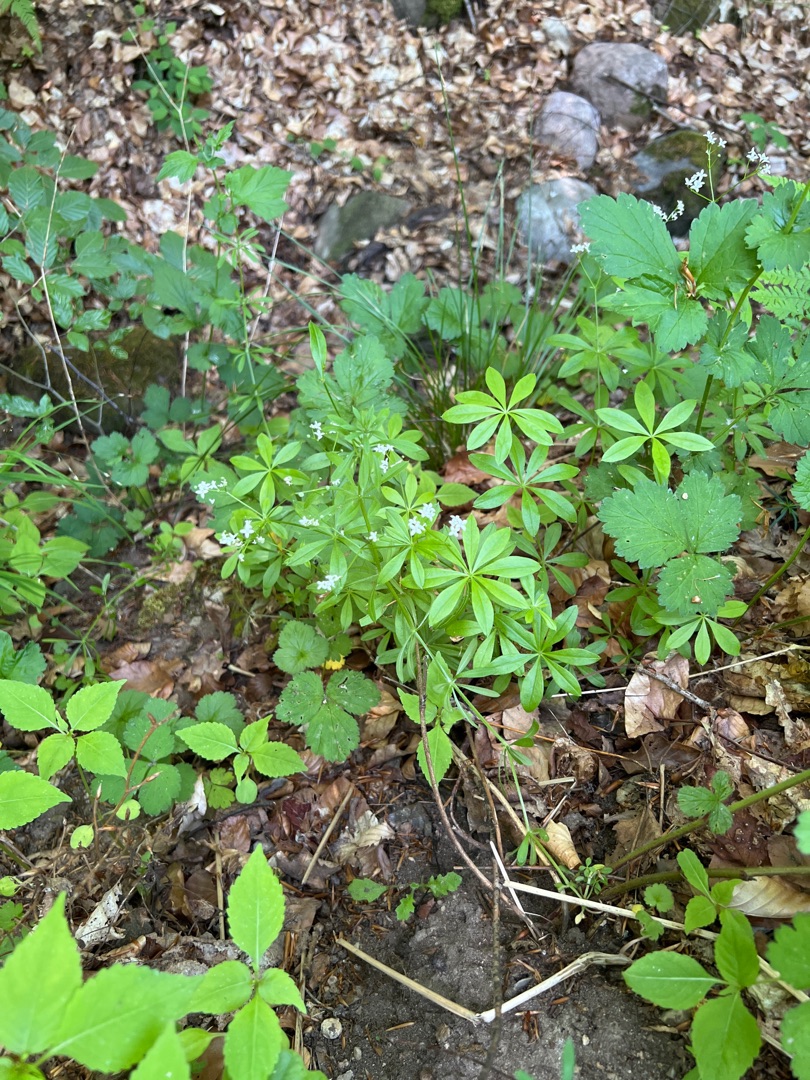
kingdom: Plantae
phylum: Tracheophyta
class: Magnoliopsida
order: Gentianales
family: Rubiaceae
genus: Galium
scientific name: Galium odoratum
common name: Skovmærke
